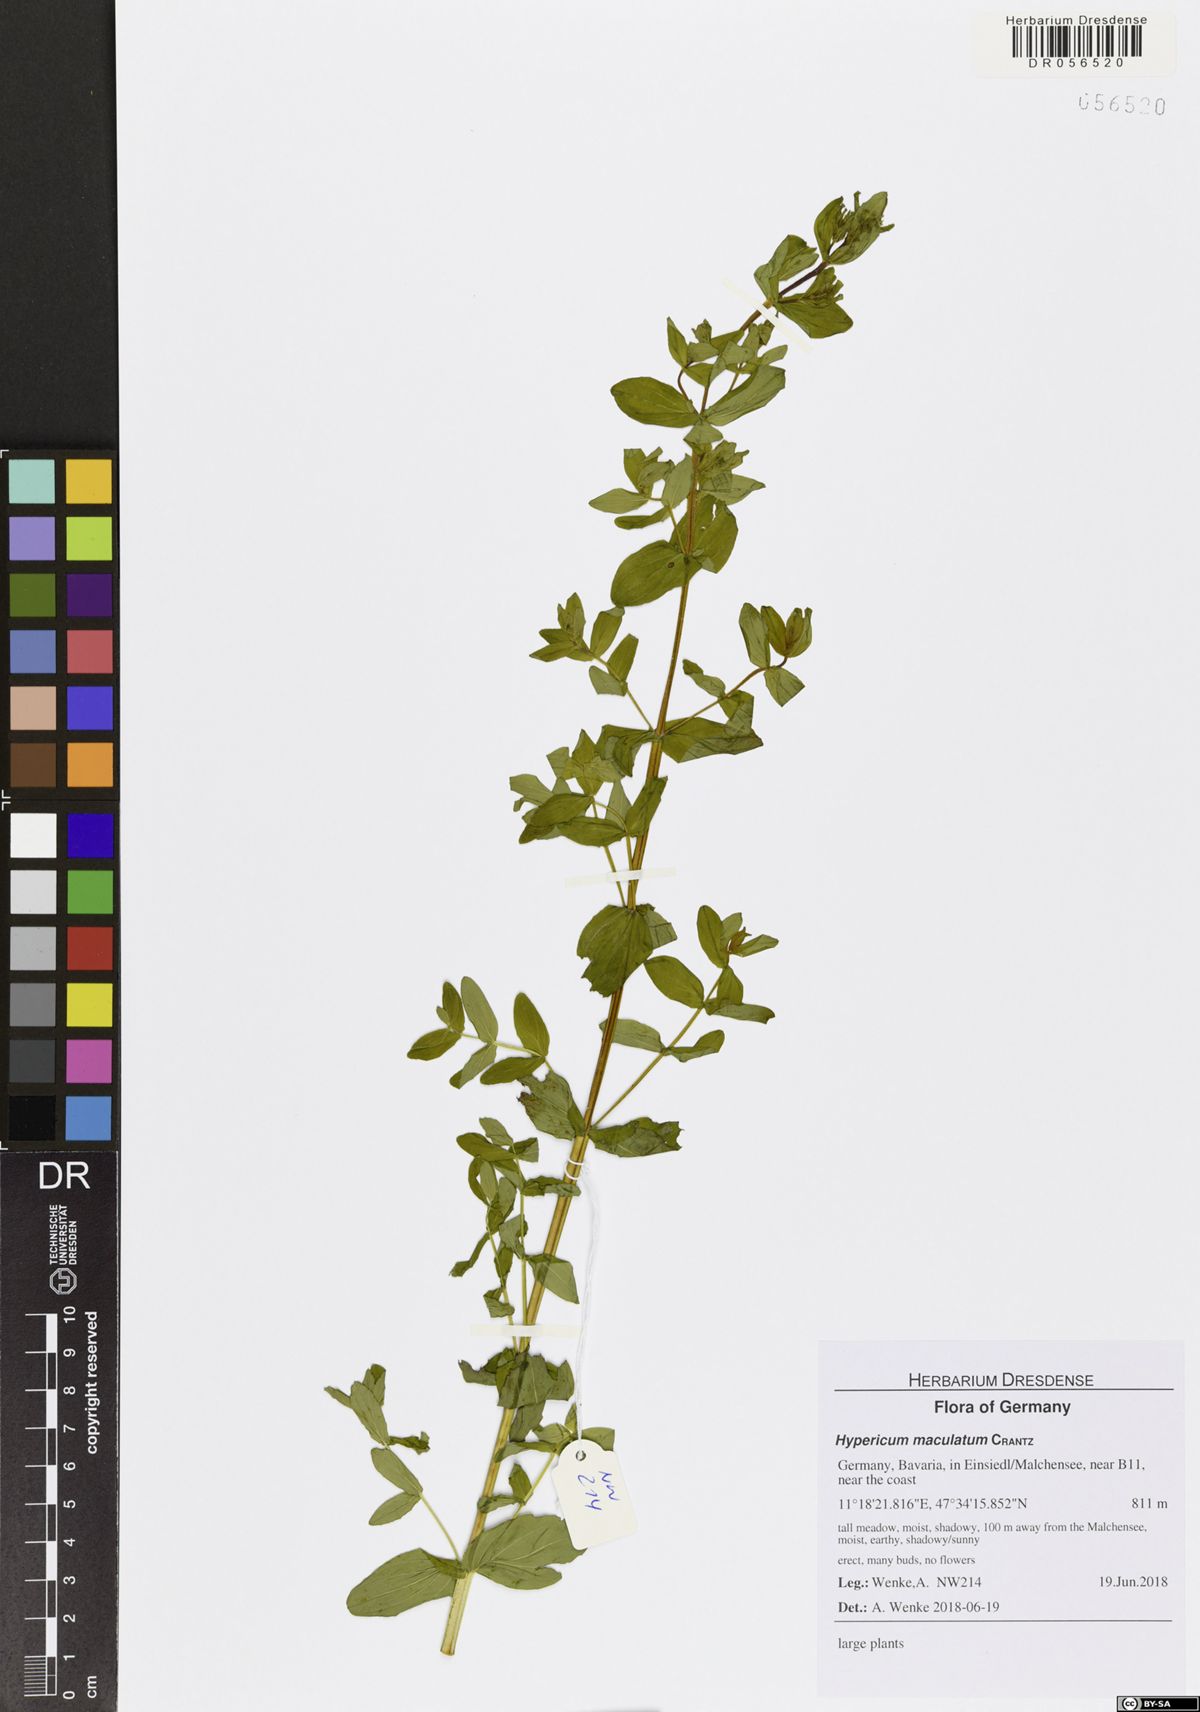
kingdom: Plantae
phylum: Tracheophyta
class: Magnoliopsida
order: Malpighiales
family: Hypericaceae
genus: Hypericum
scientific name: Hypericum maculatum
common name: Imperforate st. john's-wort
